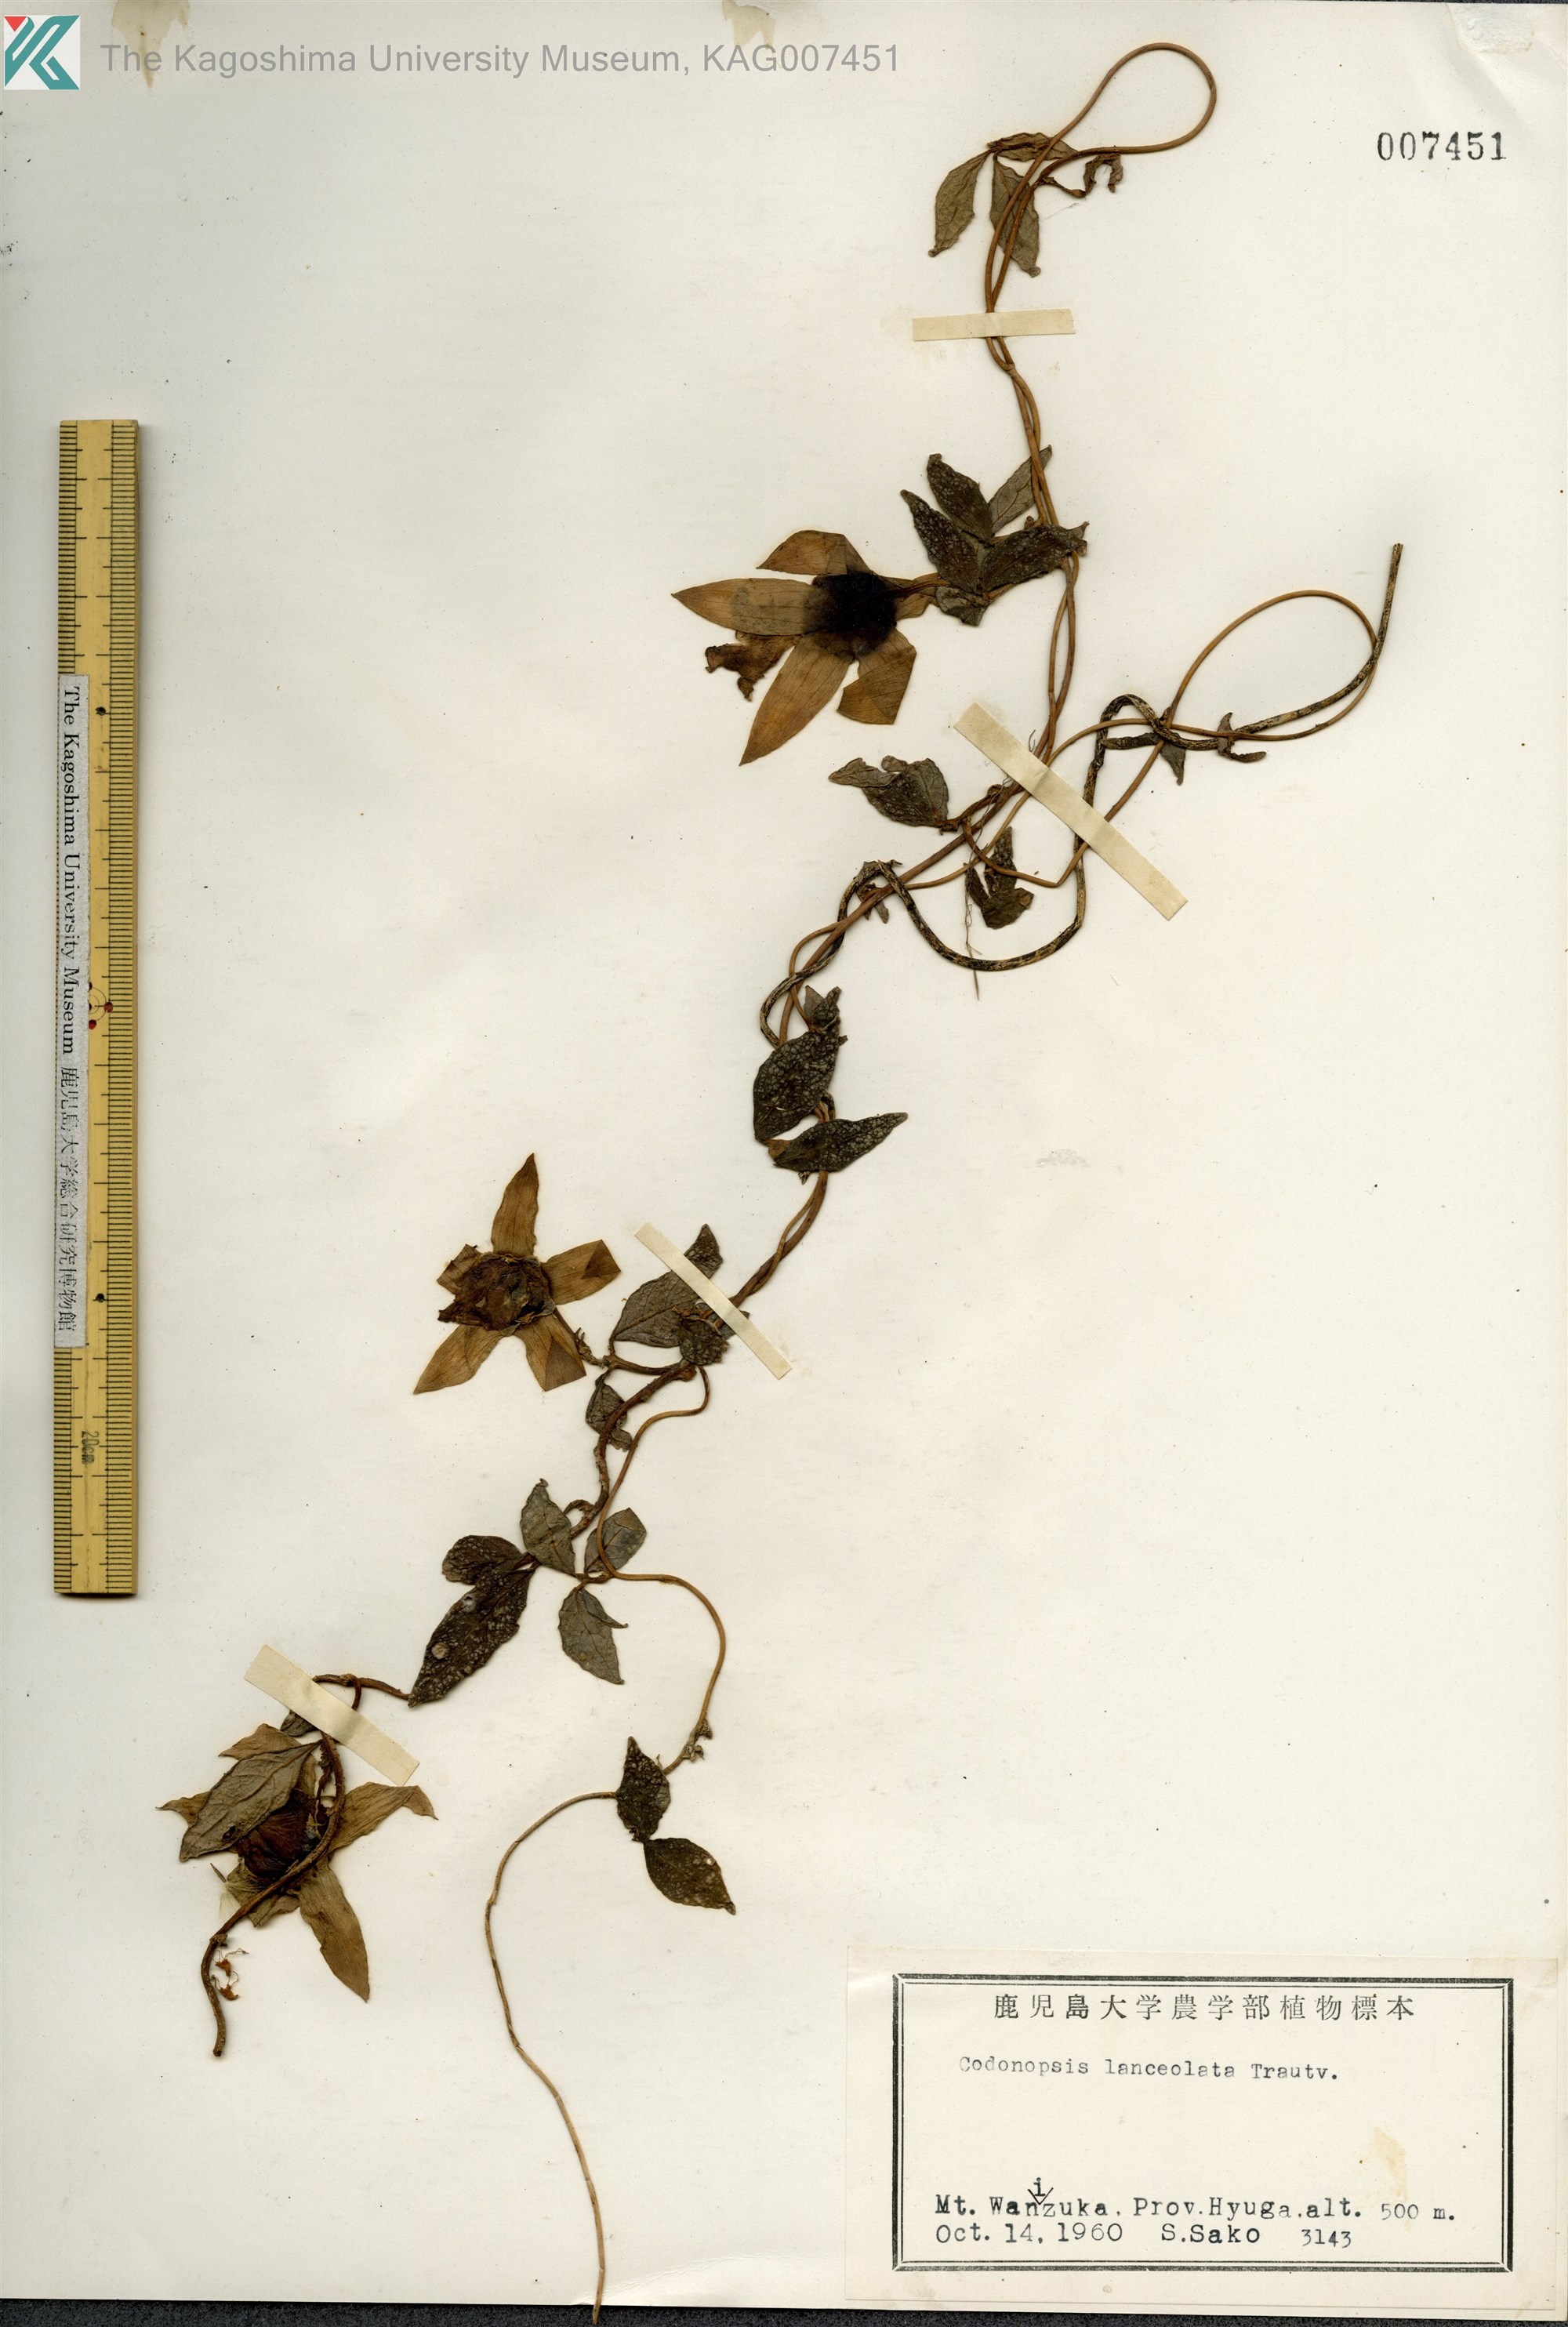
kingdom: Plantae
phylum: Tracheophyta
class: Magnoliopsida
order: Asterales
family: Campanulaceae
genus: Codonopsis
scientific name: Codonopsis lanceolata
